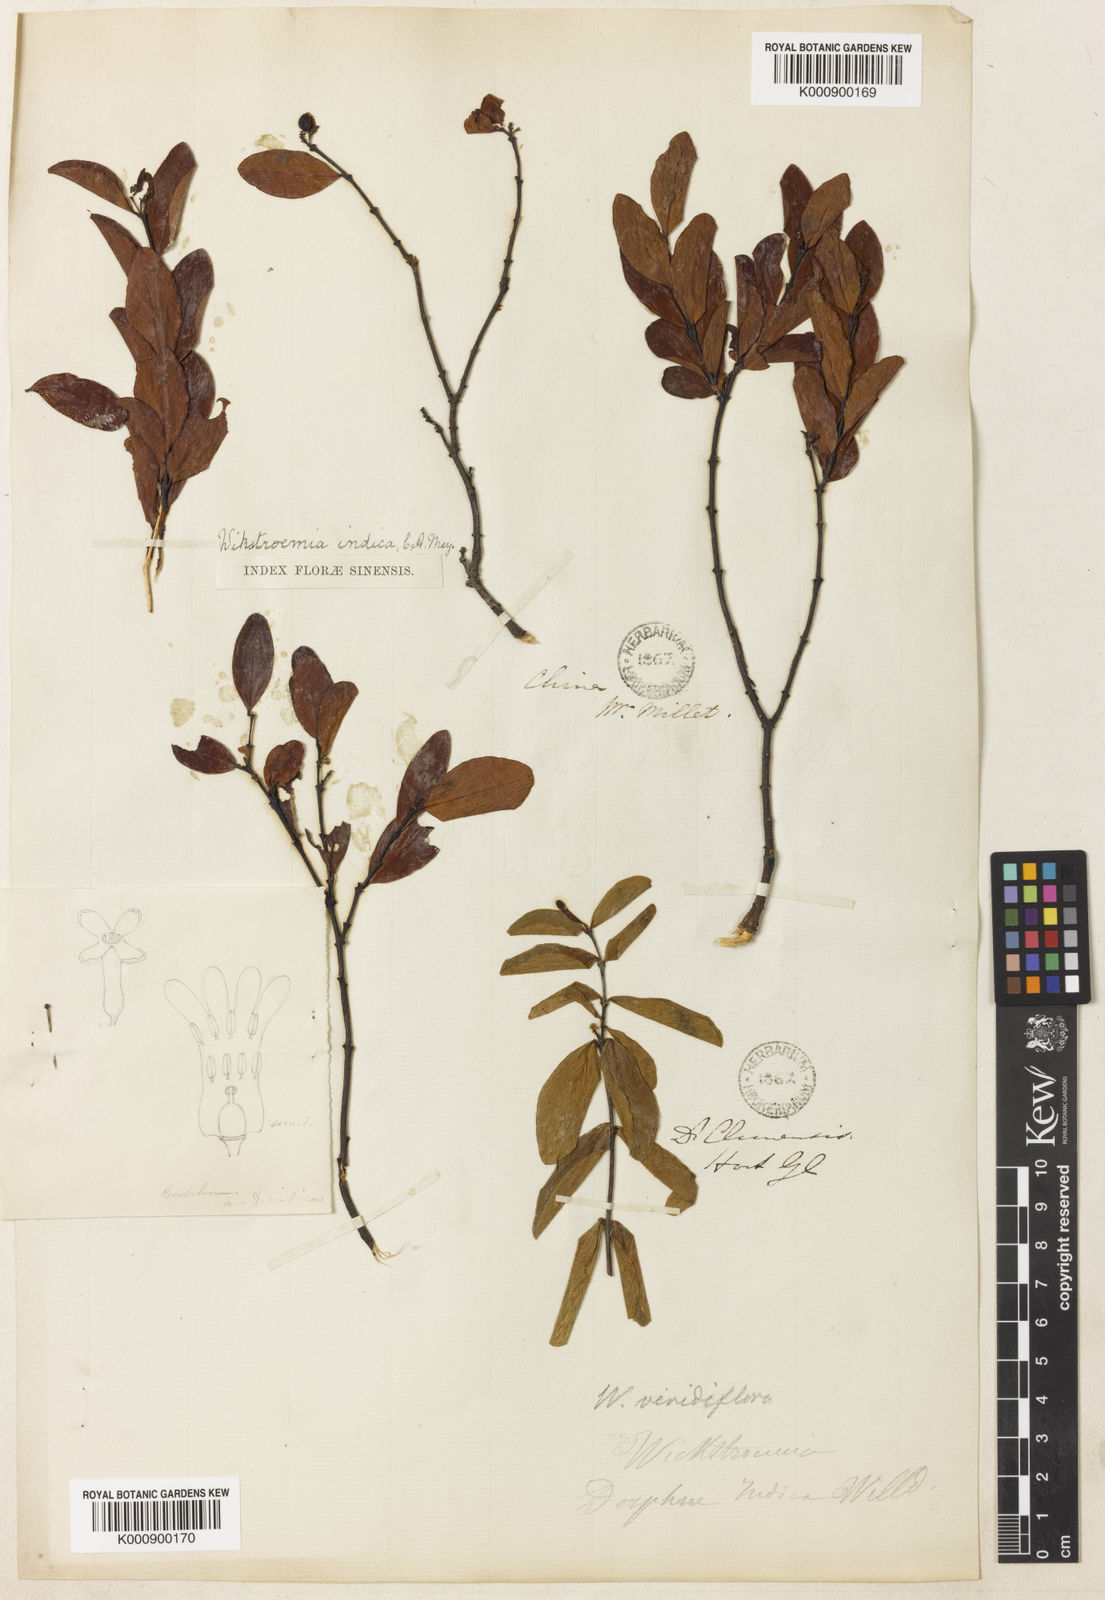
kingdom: Plantae
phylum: Tracheophyta
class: Magnoliopsida
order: Malvales
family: Thymelaeaceae
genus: Wikstroemia
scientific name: Wikstroemia indica
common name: Tiebush
